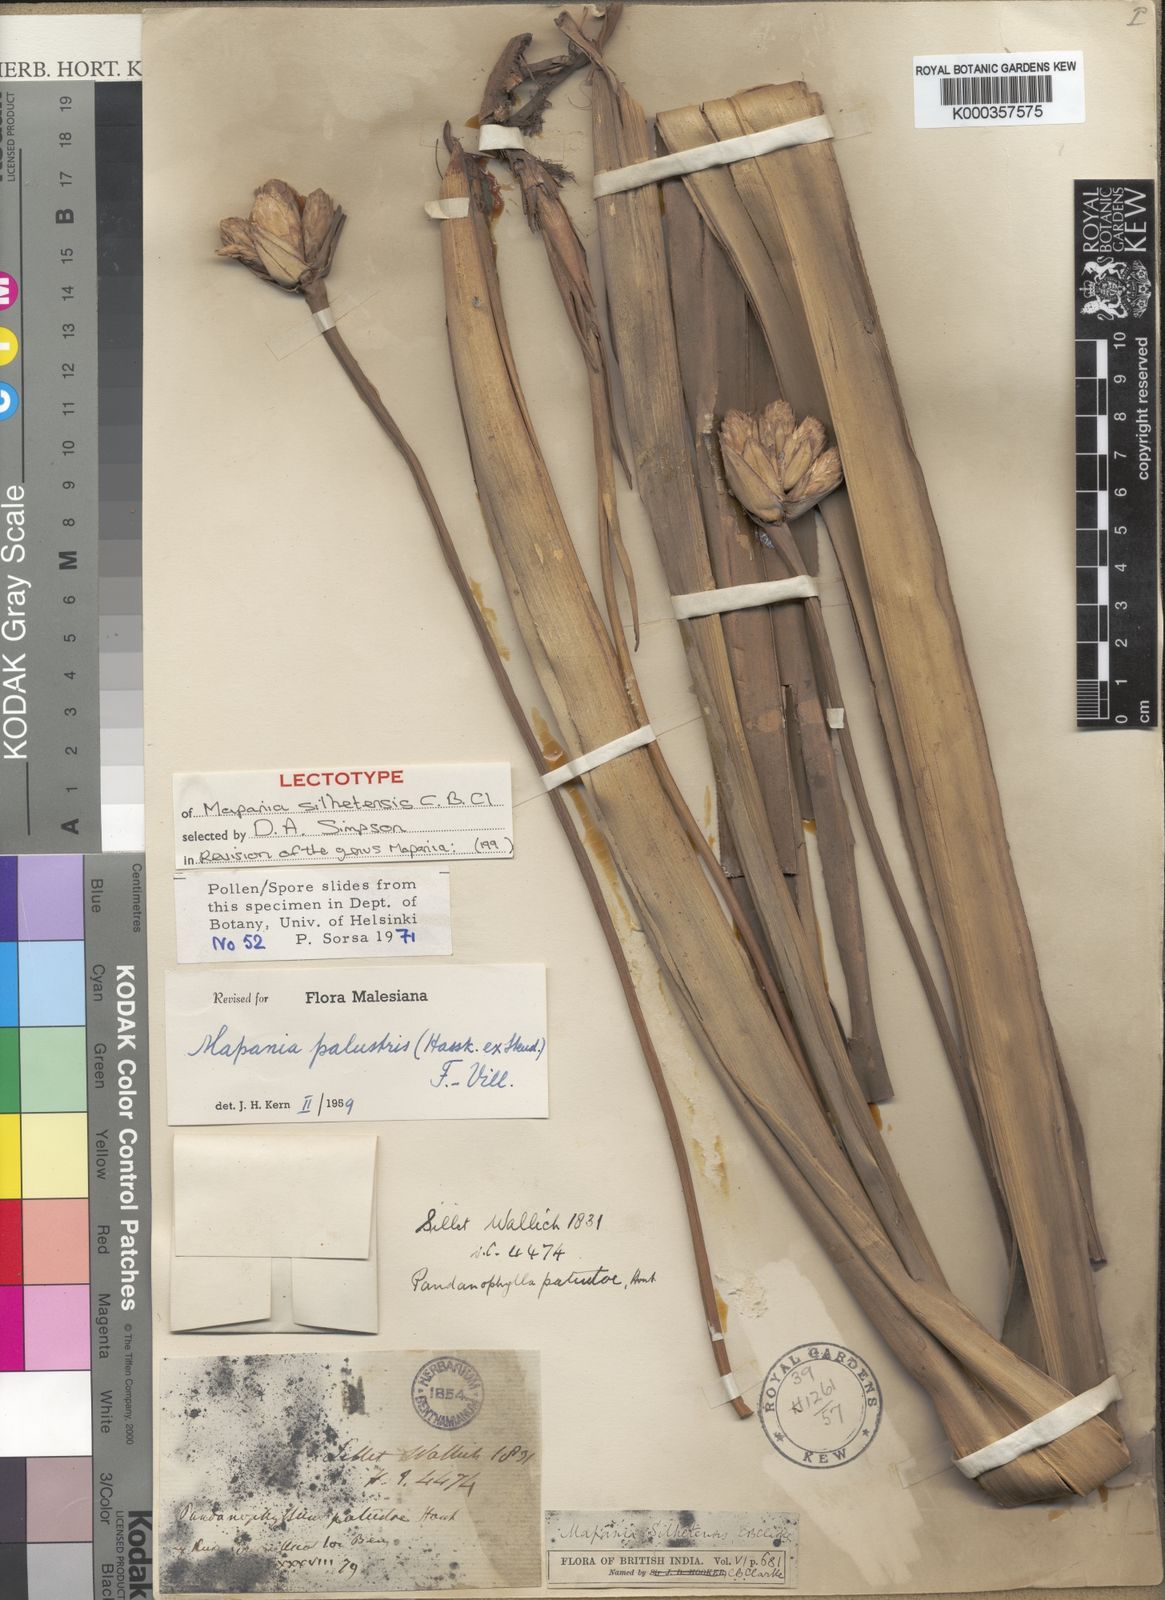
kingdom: Plantae
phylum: Tracheophyta
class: Liliopsida
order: Poales
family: Cyperaceae
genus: Mapania
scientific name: Mapania
